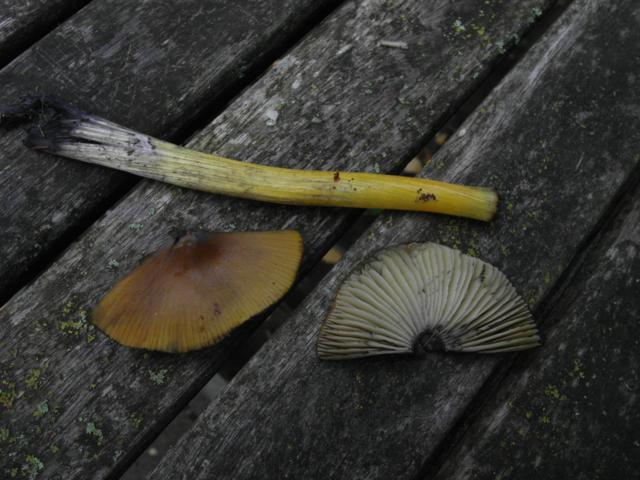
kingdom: Fungi
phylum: Basidiomycota
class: Agaricomycetes
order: Agaricales
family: Hygrophoraceae
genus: Gliophorus
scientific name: Gliophorus psittacinus
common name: papegøje-vokshat
